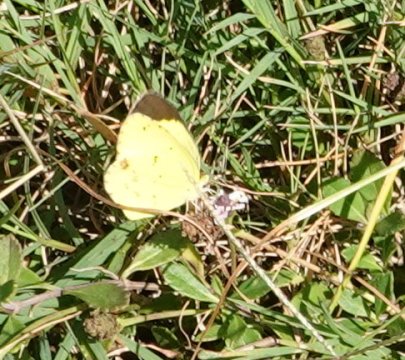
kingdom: Animalia
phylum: Arthropoda
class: Insecta
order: Lepidoptera
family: Pieridae
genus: Pyrisitia
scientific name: Pyrisitia lisa
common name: Little Yellow
